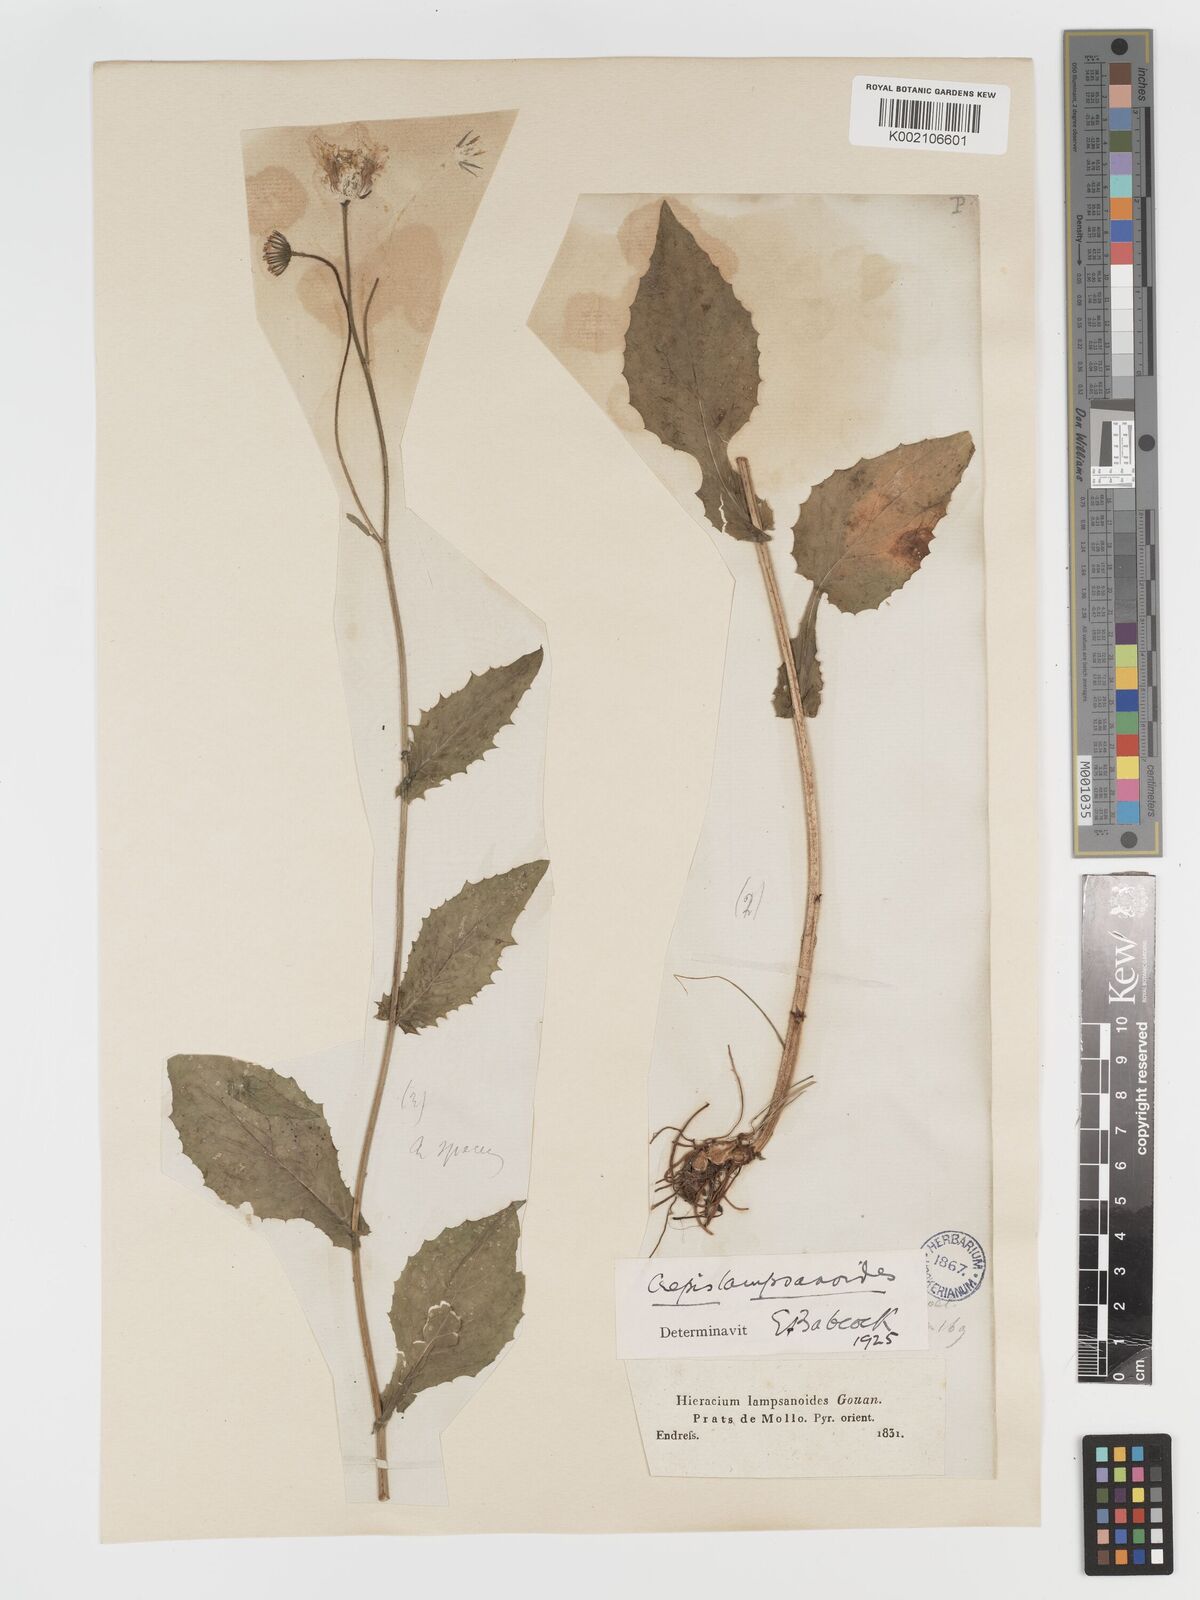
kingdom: Plantae
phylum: Tracheophyta
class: Magnoliopsida
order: Asterales
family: Asteraceae
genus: Crepis
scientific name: Crepis lampsanoides
